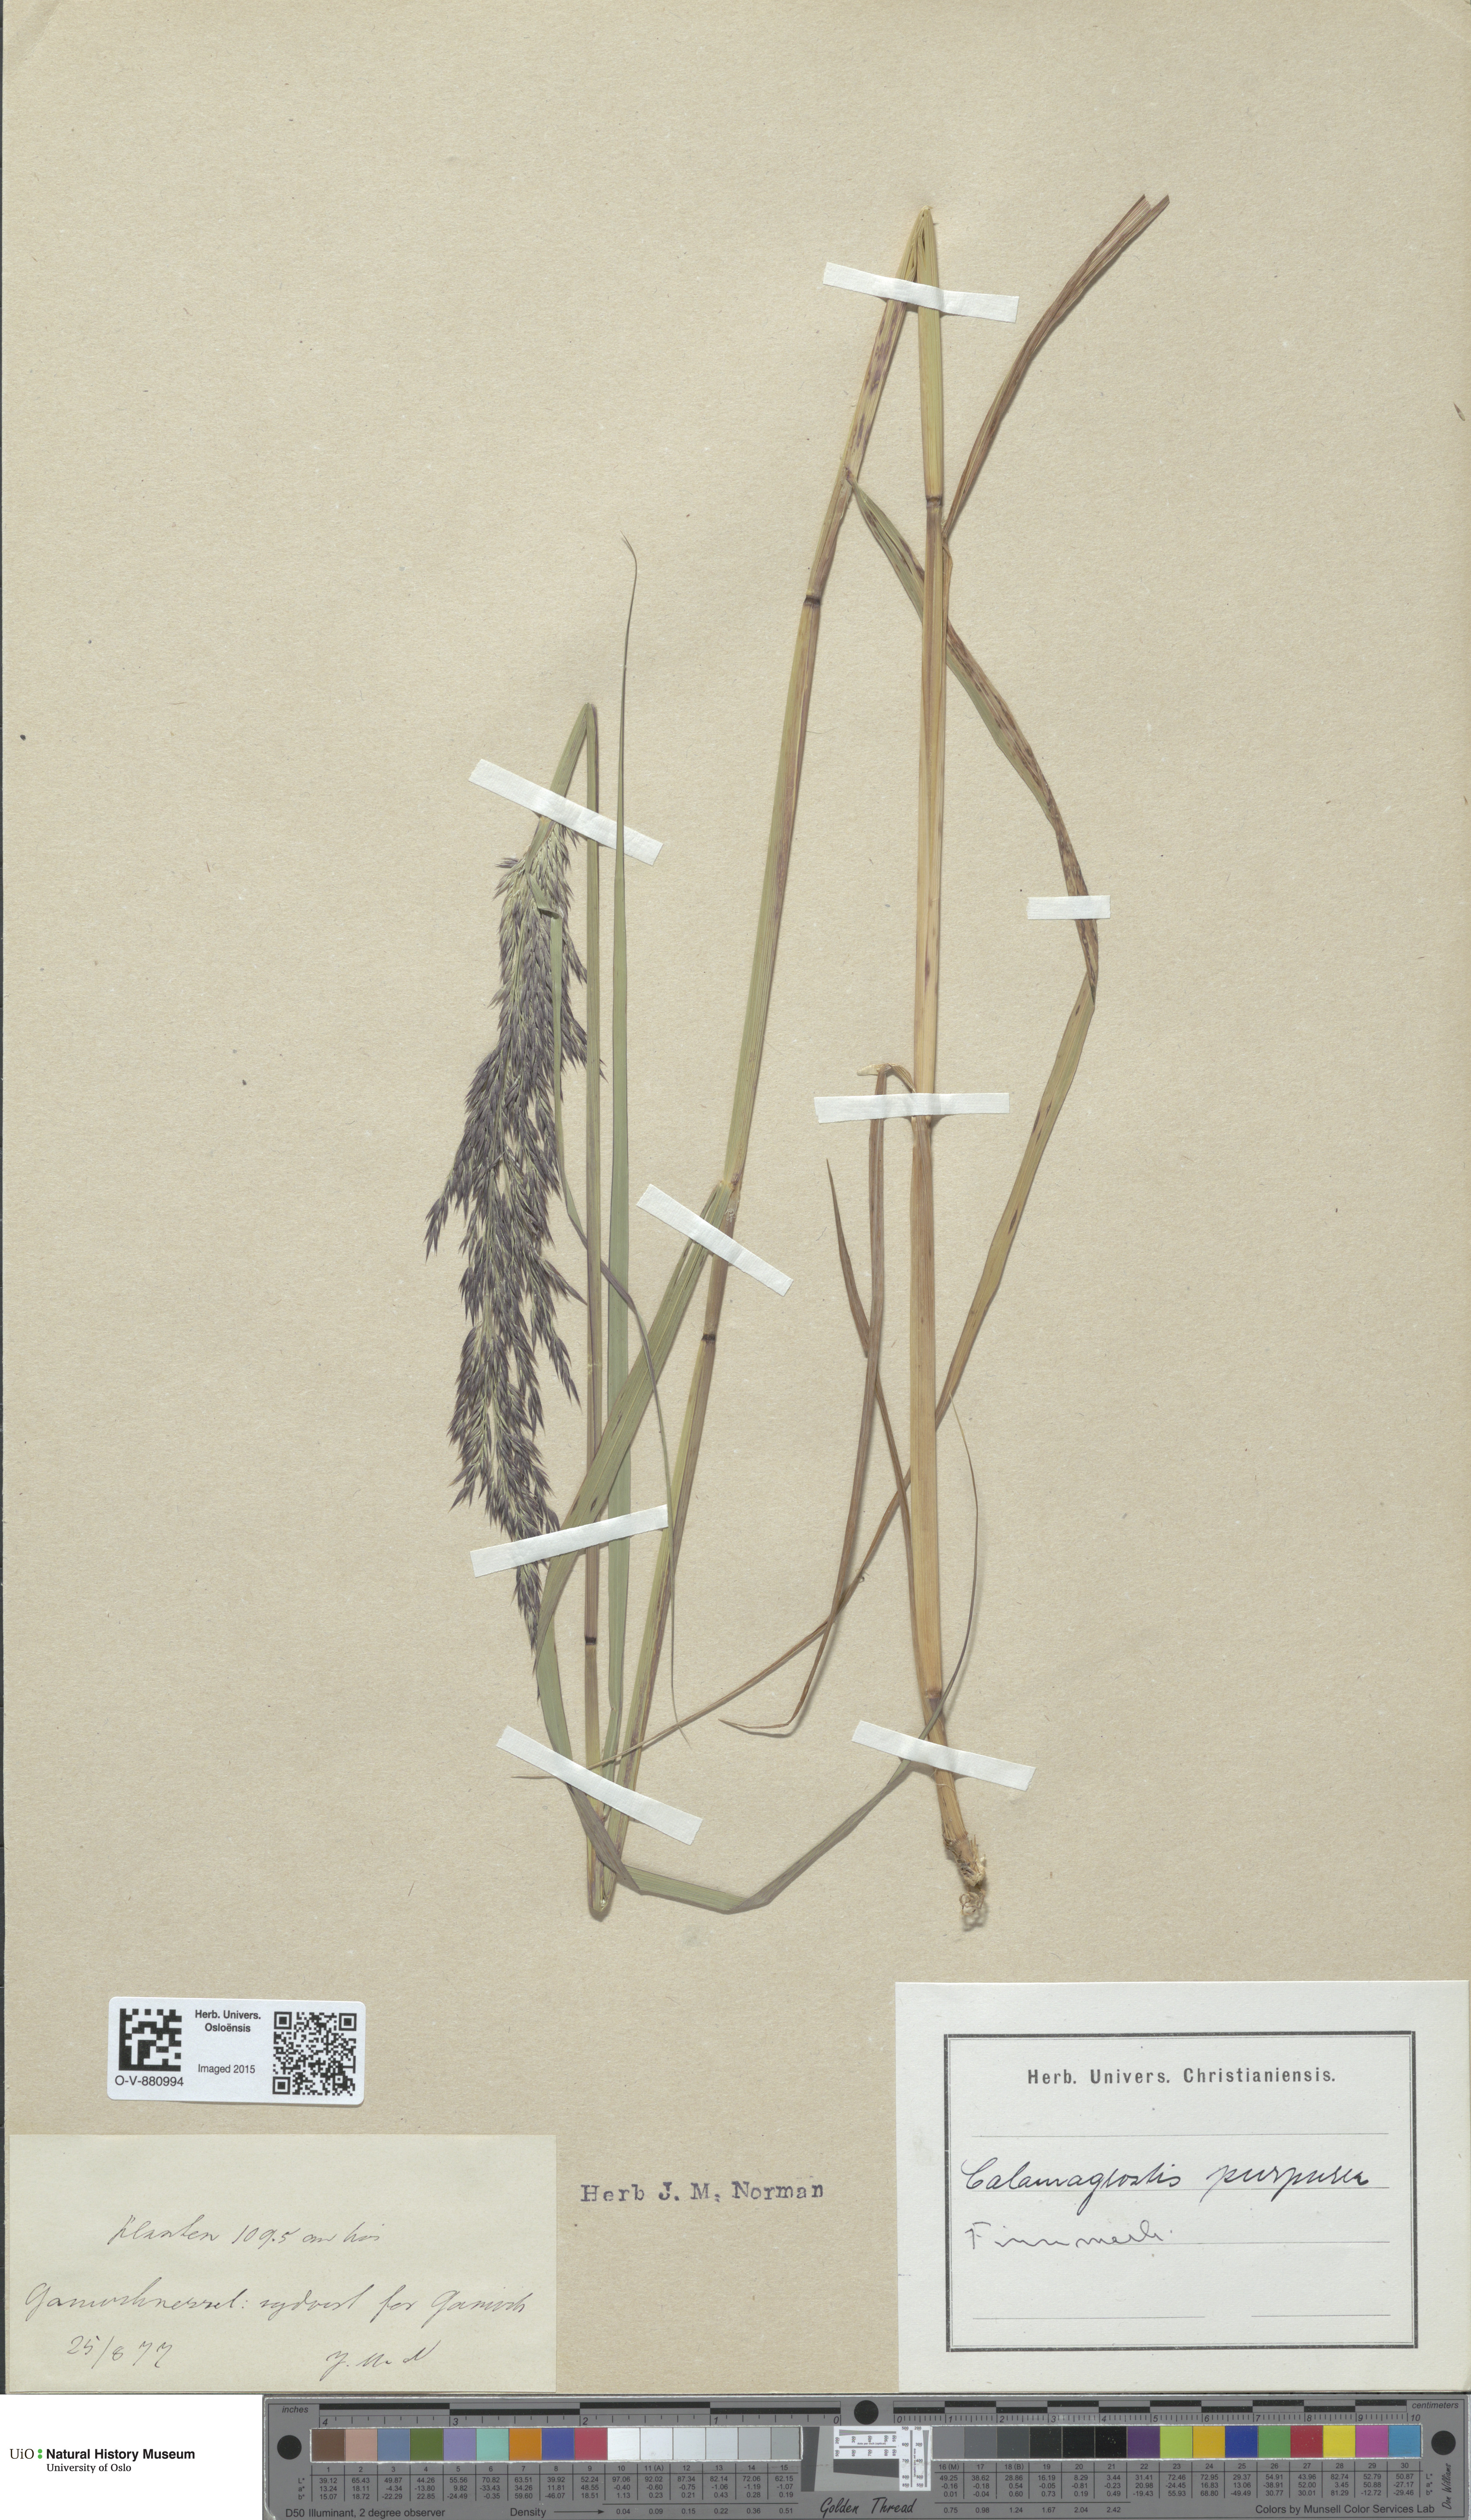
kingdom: Plantae
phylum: Tracheophyta
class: Liliopsida
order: Poales
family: Poaceae
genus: Calamagrostis
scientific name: Calamagrostis purpurea
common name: Scandinavian small-reed
